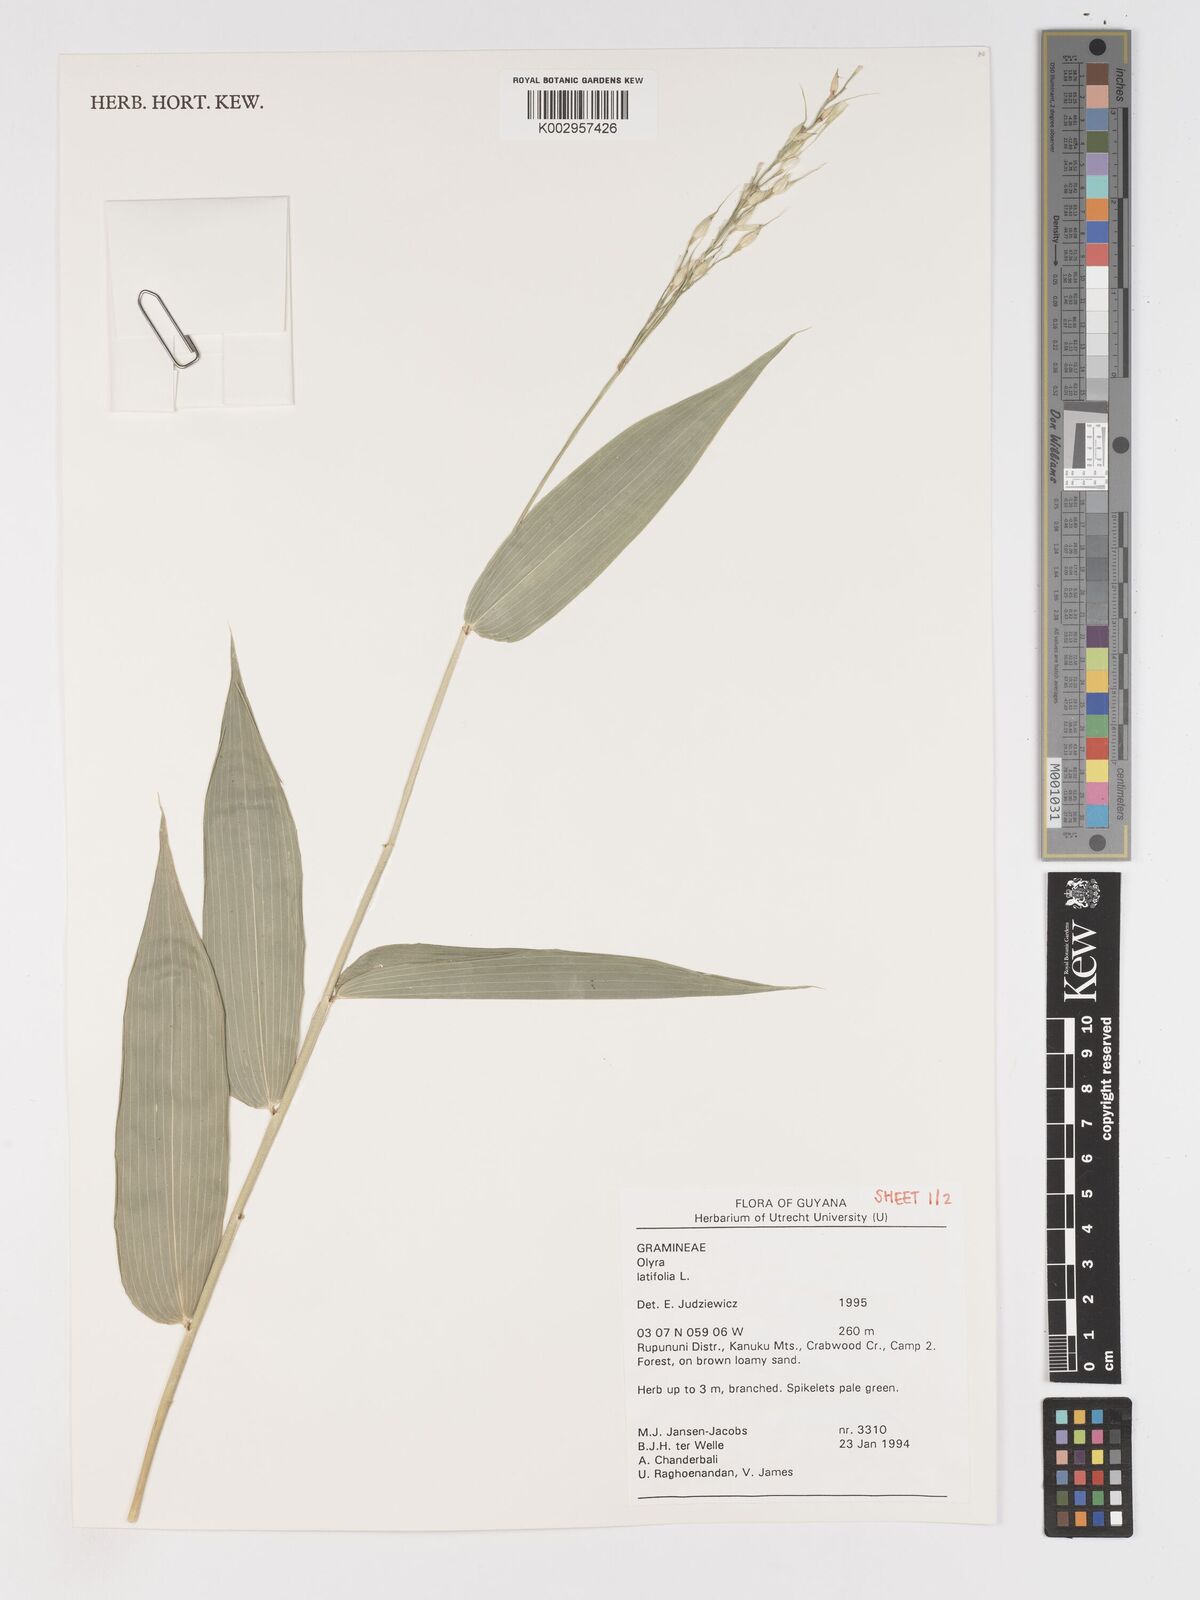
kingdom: Plantae
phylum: Tracheophyta
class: Liliopsida
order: Poales
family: Poaceae
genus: Olyra
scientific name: Olyra latifolia
